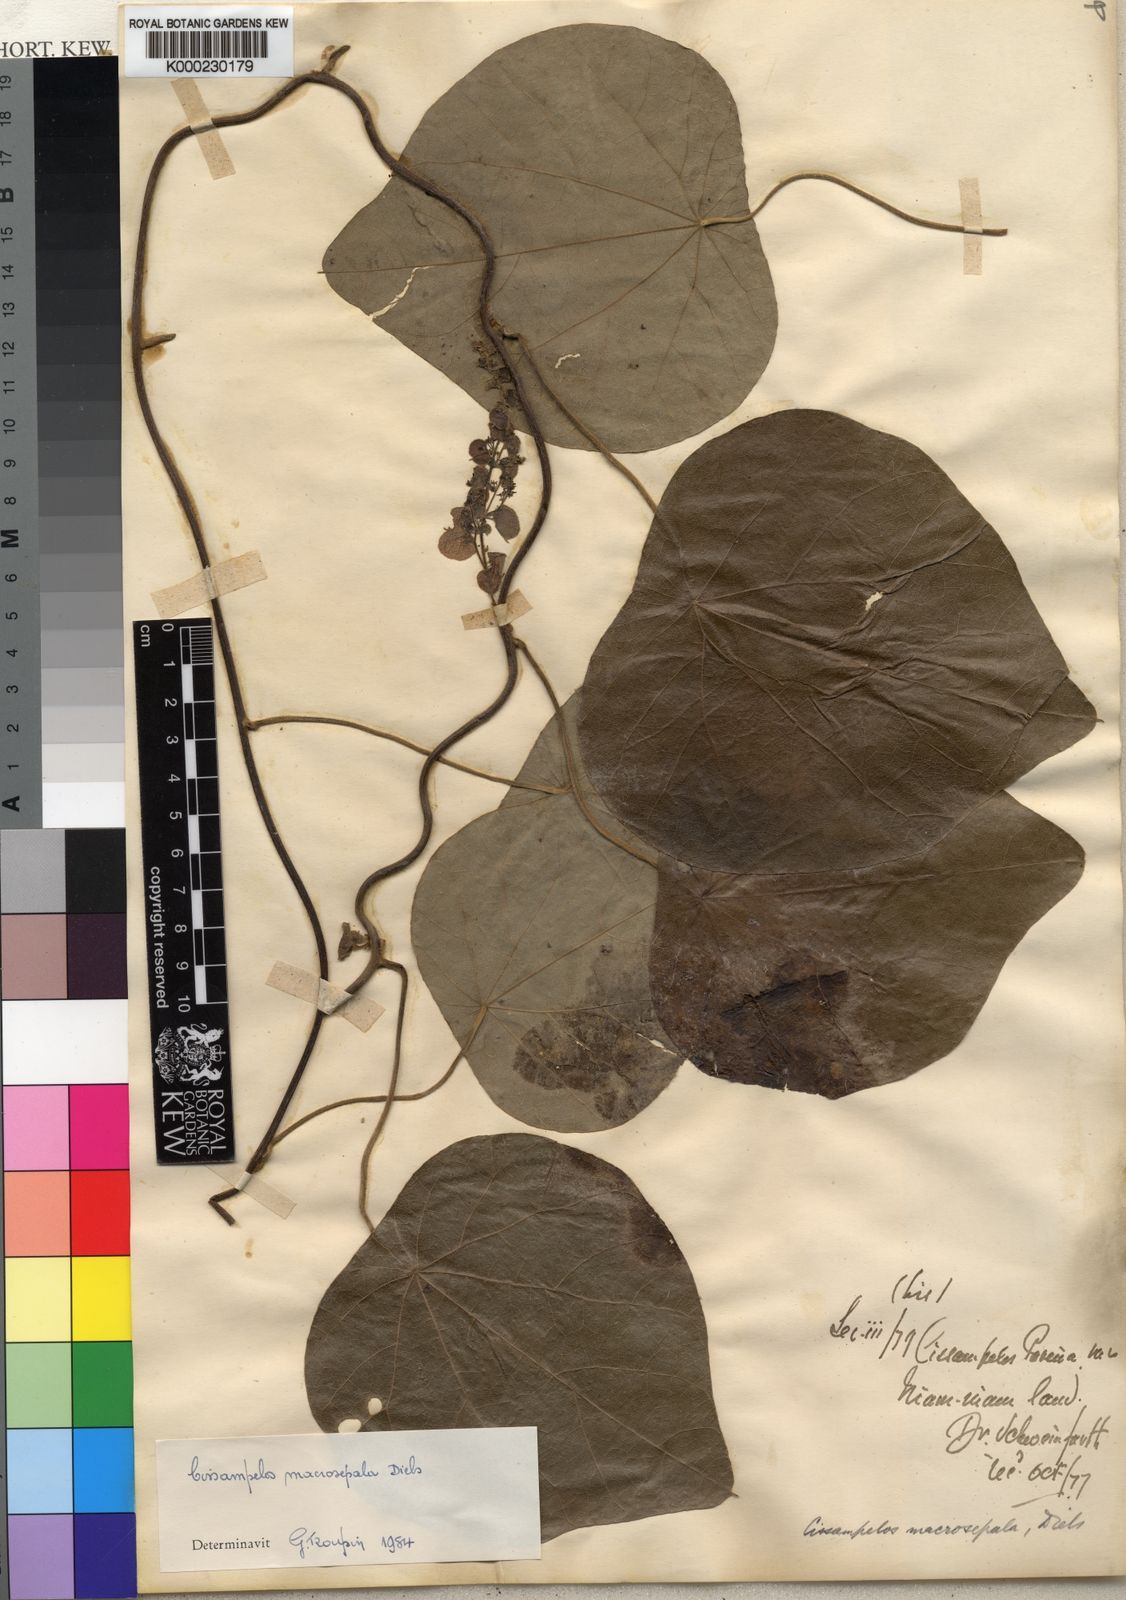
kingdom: Plantae
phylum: Tracheophyta
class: Magnoliopsida
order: Ranunculales
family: Menispermaceae
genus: Cissampelos
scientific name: Cissampelos owariensis
